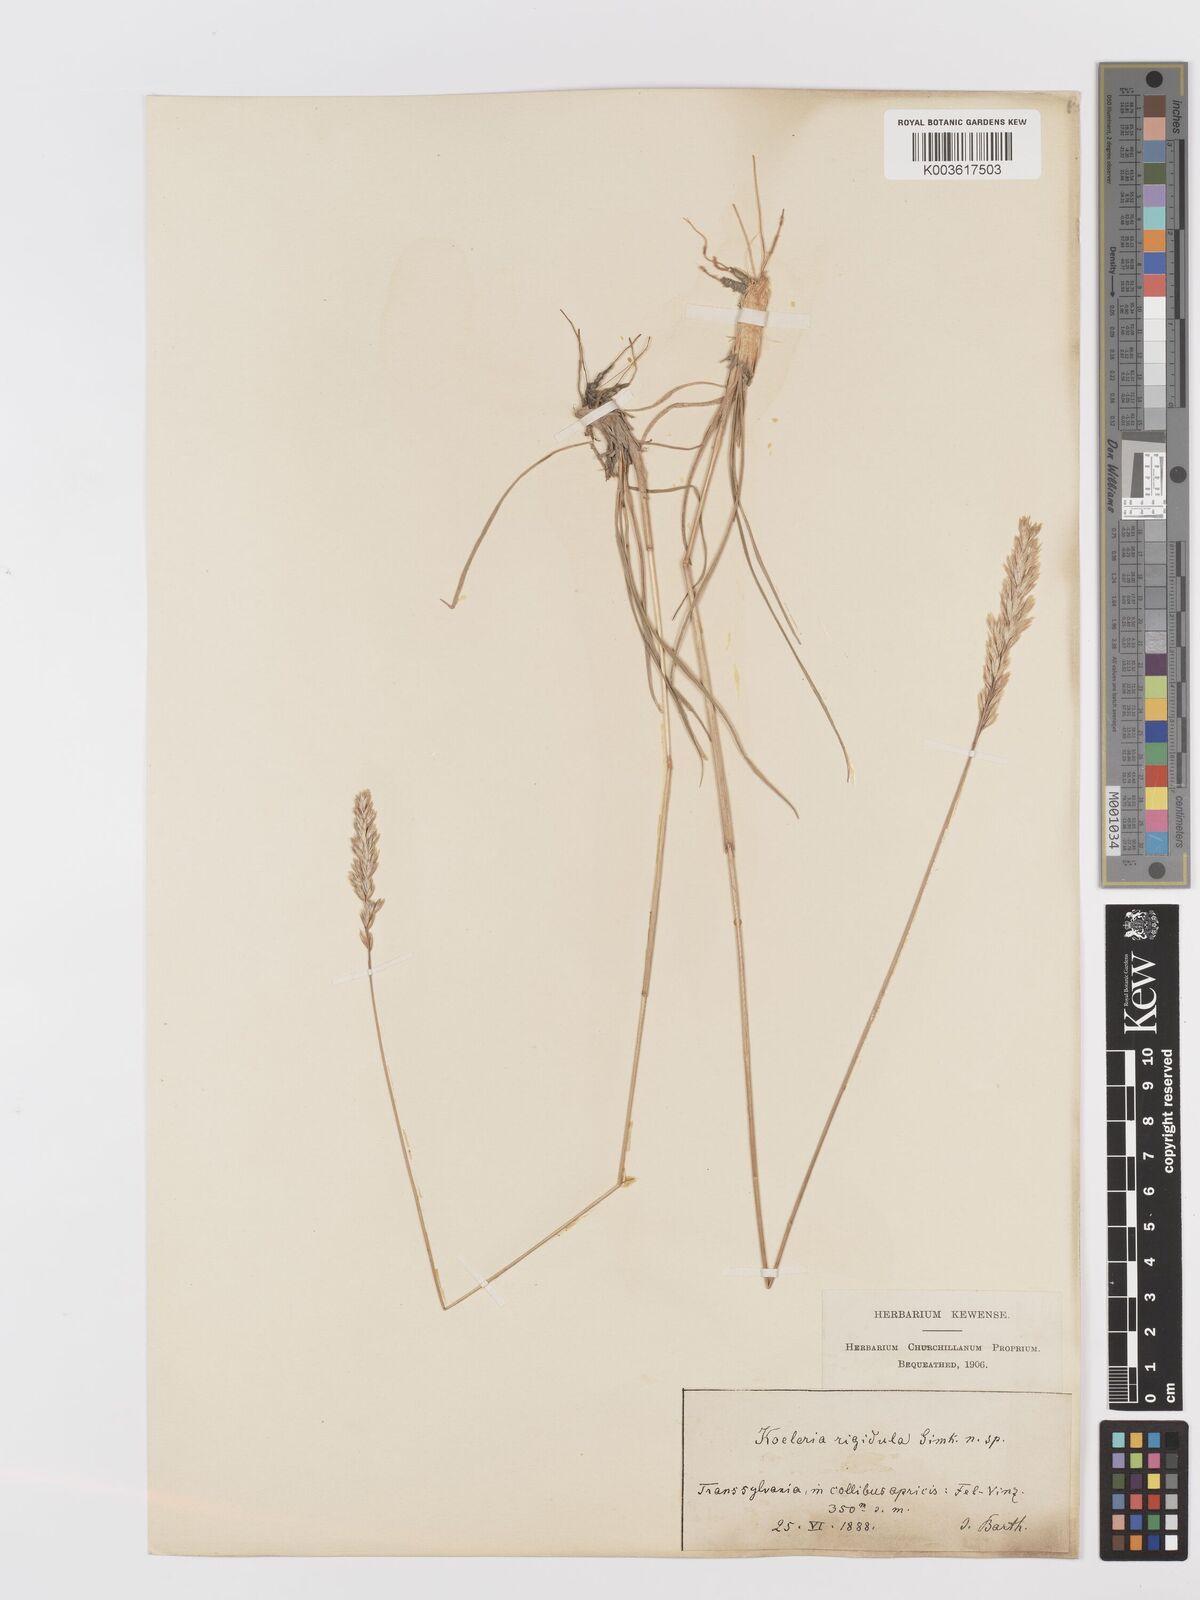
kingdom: Plantae
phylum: Tracheophyta
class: Liliopsida
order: Poales
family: Poaceae
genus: Koeleria
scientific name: Koeleria
